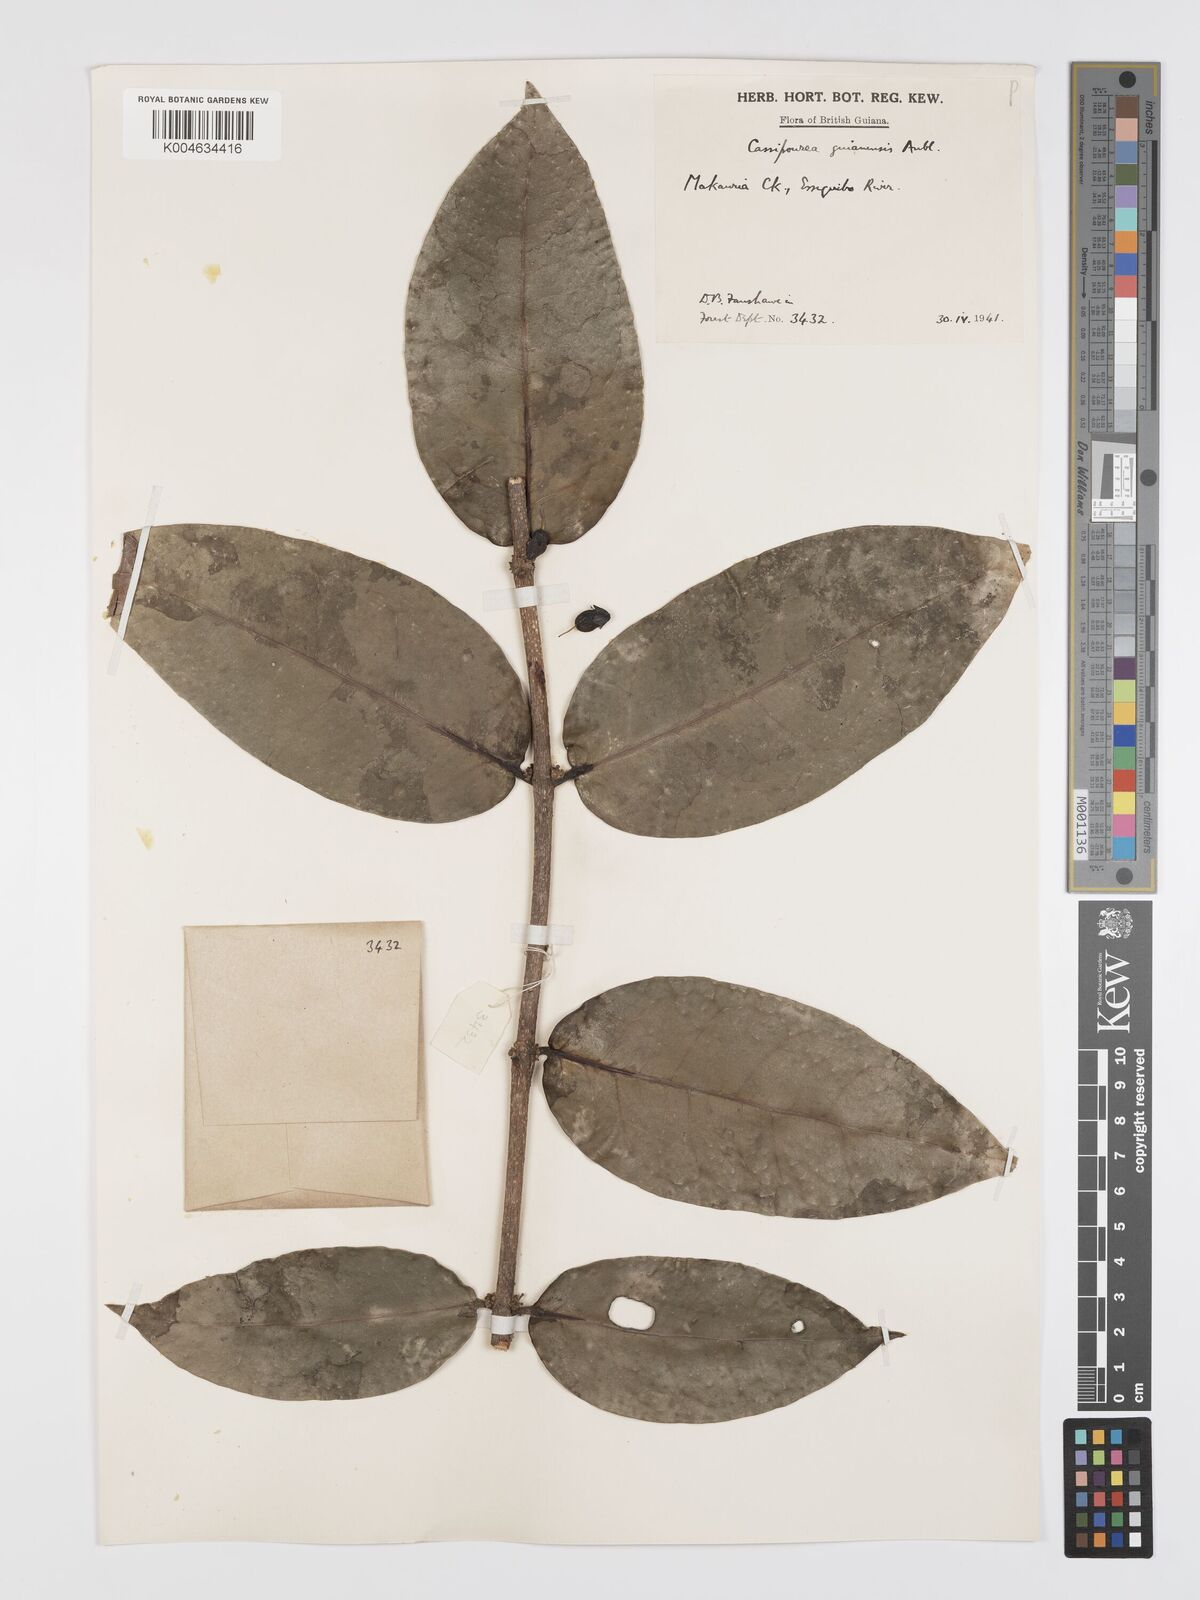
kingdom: Plantae
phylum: Tracheophyta
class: Magnoliopsida
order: Malpighiales
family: Rhizophoraceae
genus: Cassipourea
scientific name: Cassipourea guianensis
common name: Bastard waterwood
